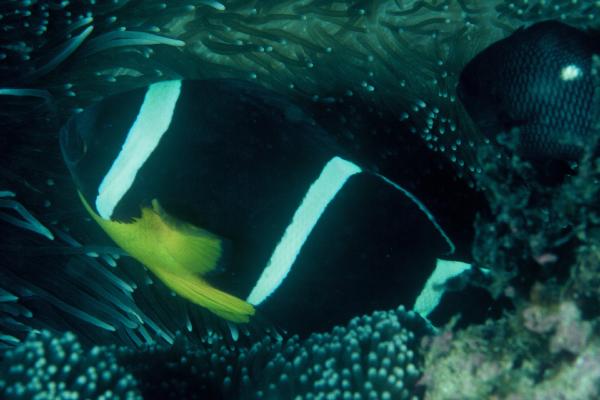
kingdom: Animalia
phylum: Chordata
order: Perciformes
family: Pomacentridae
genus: Amphiprion
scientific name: Amphiprion chrysogaster
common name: Mauritian anemonefish
